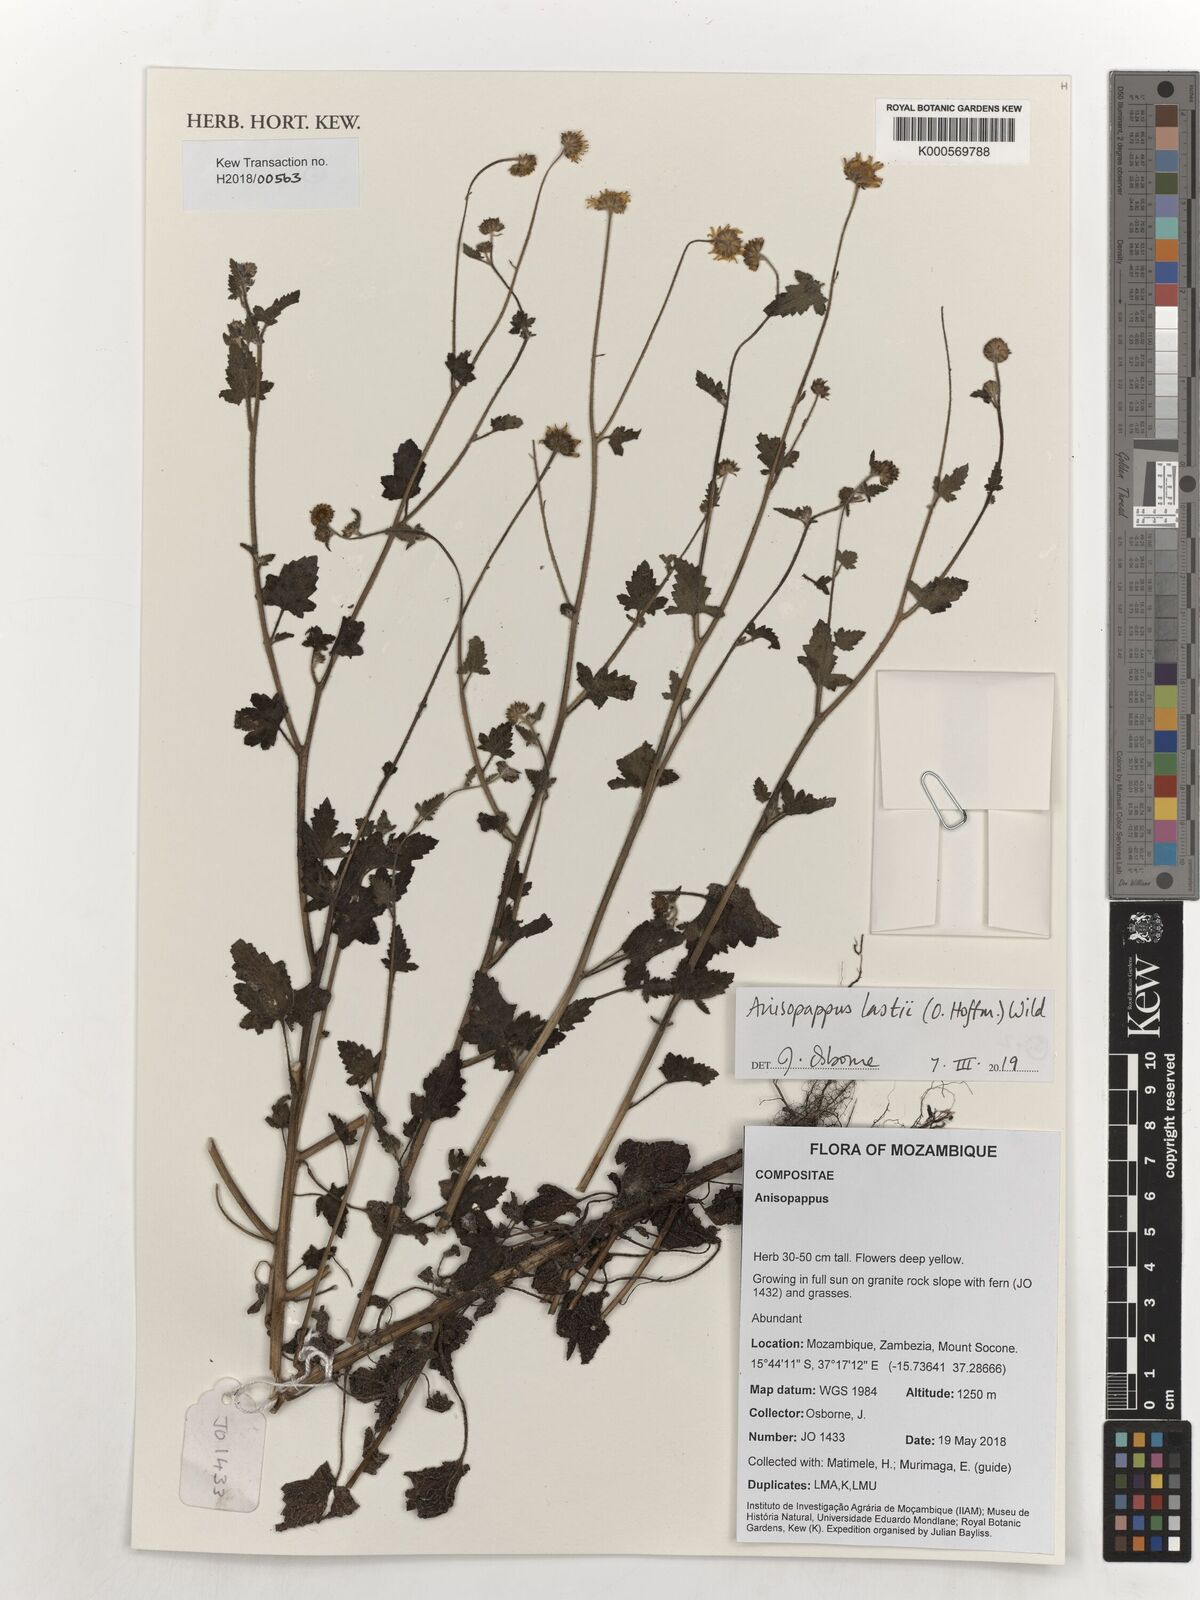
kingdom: Plantae
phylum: Tracheophyta
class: Magnoliopsida
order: Asterales
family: Asteraceae
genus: Anisopappus
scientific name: Anisopappus lastii
